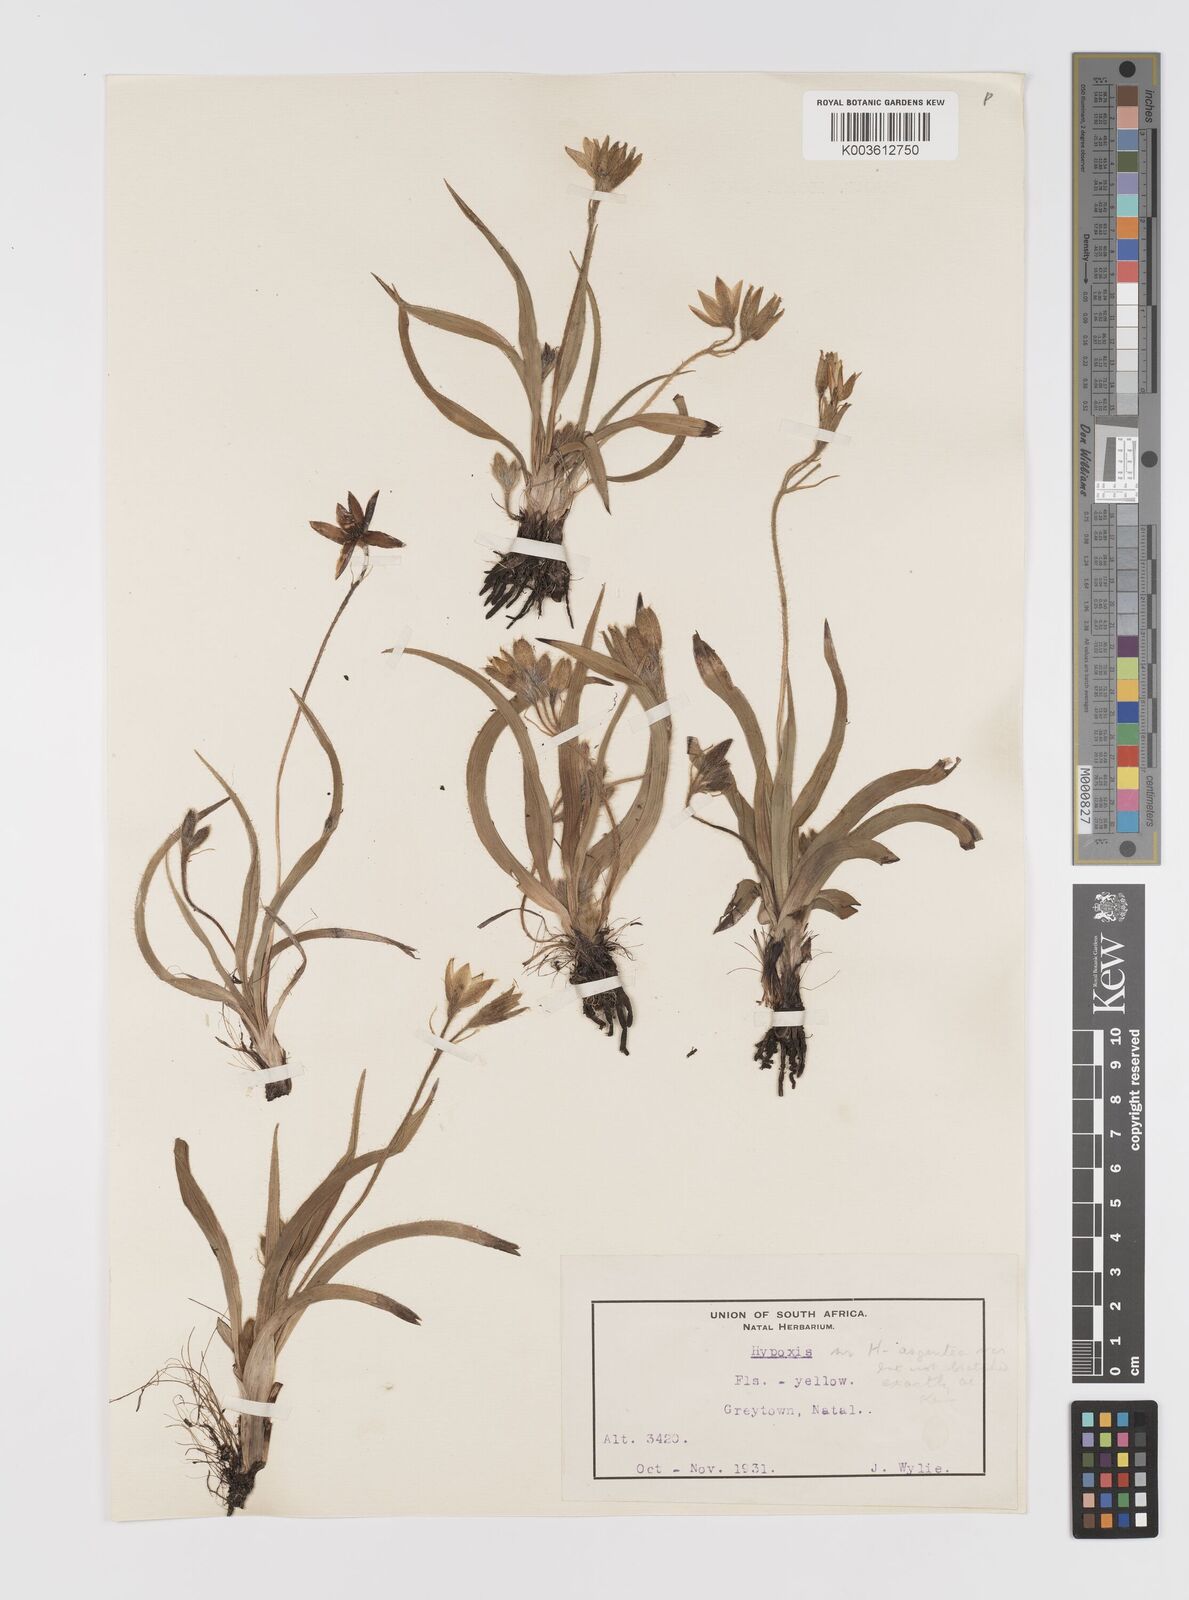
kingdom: Plantae
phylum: Tracheophyta
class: Liliopsida
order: Asparagales
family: Hypoxidaceae
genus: Hypoxis
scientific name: Hypoxis parvifolia
